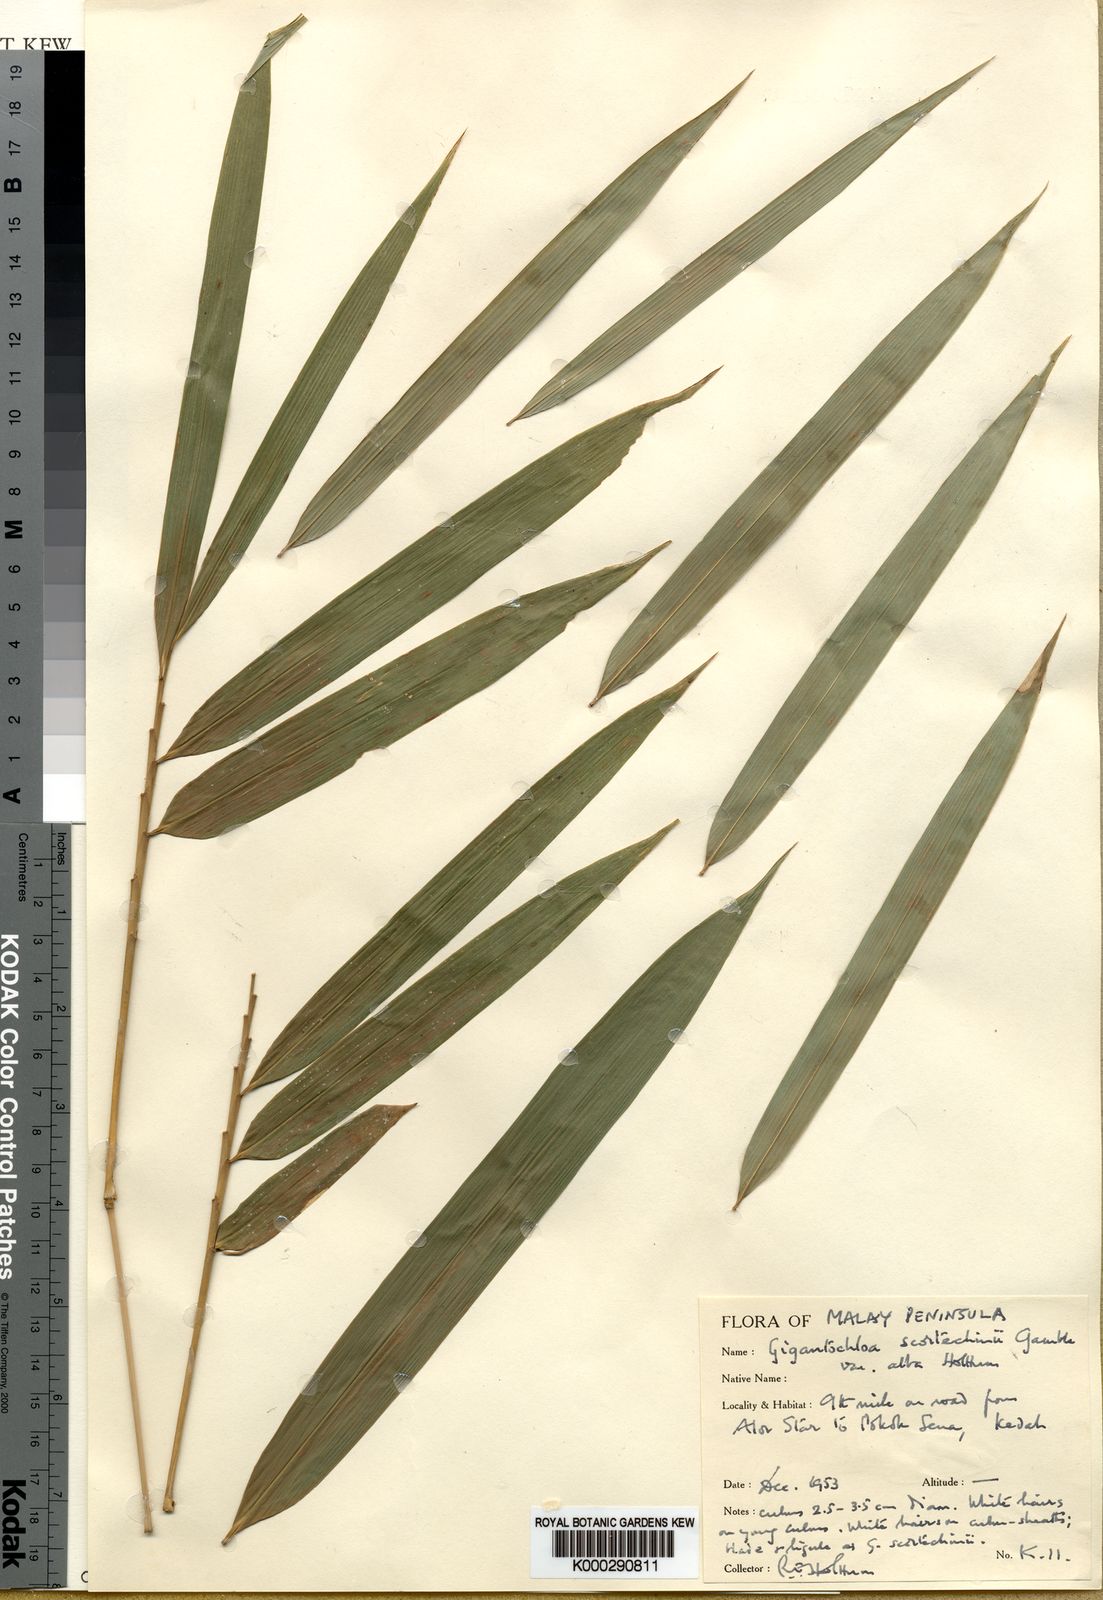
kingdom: Plantae
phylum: Tracheophyta
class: Liliopsida
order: Poales
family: Poaceae
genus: Gigantochloa
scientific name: Gigantochloa albovestita
